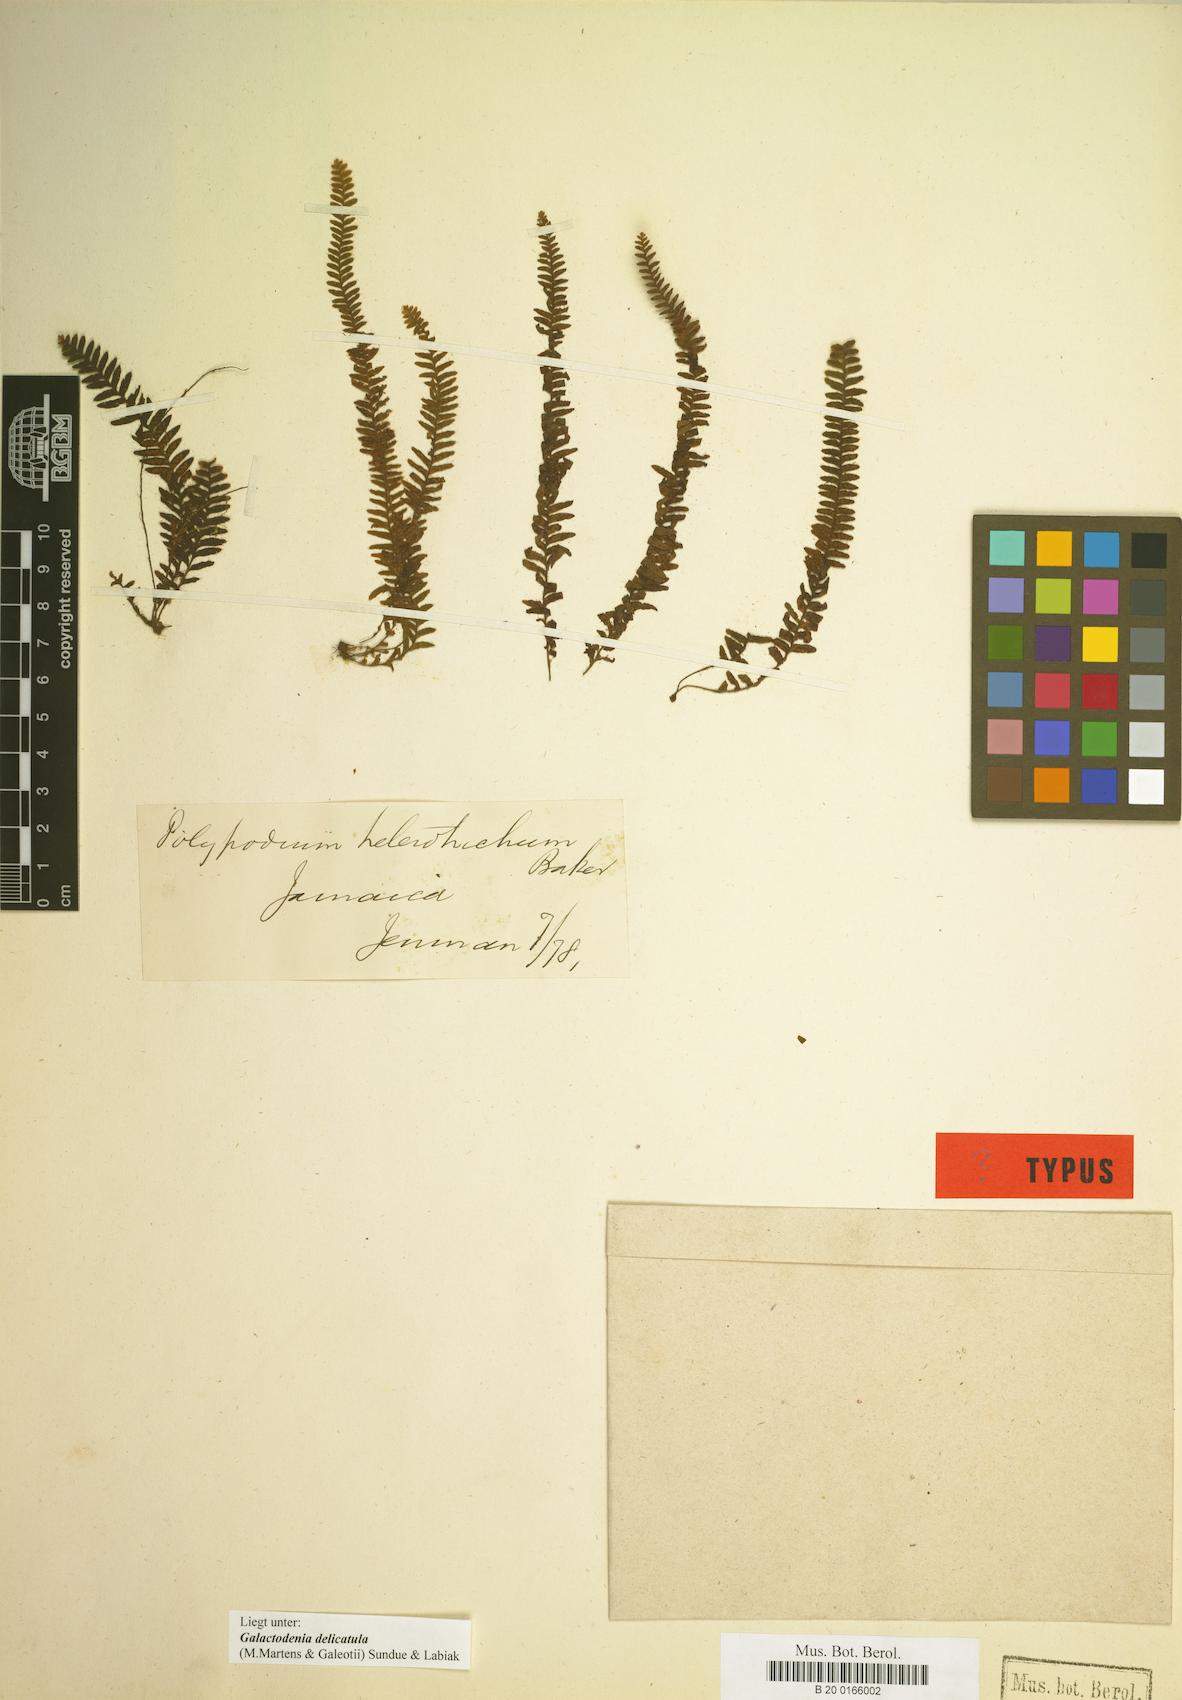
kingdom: Plantae
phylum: Tracheophyta
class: Polypodiopsida
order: Polypodiales
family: Polypodiaceae
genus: Galactodenia
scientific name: Galactodenia delicatula
